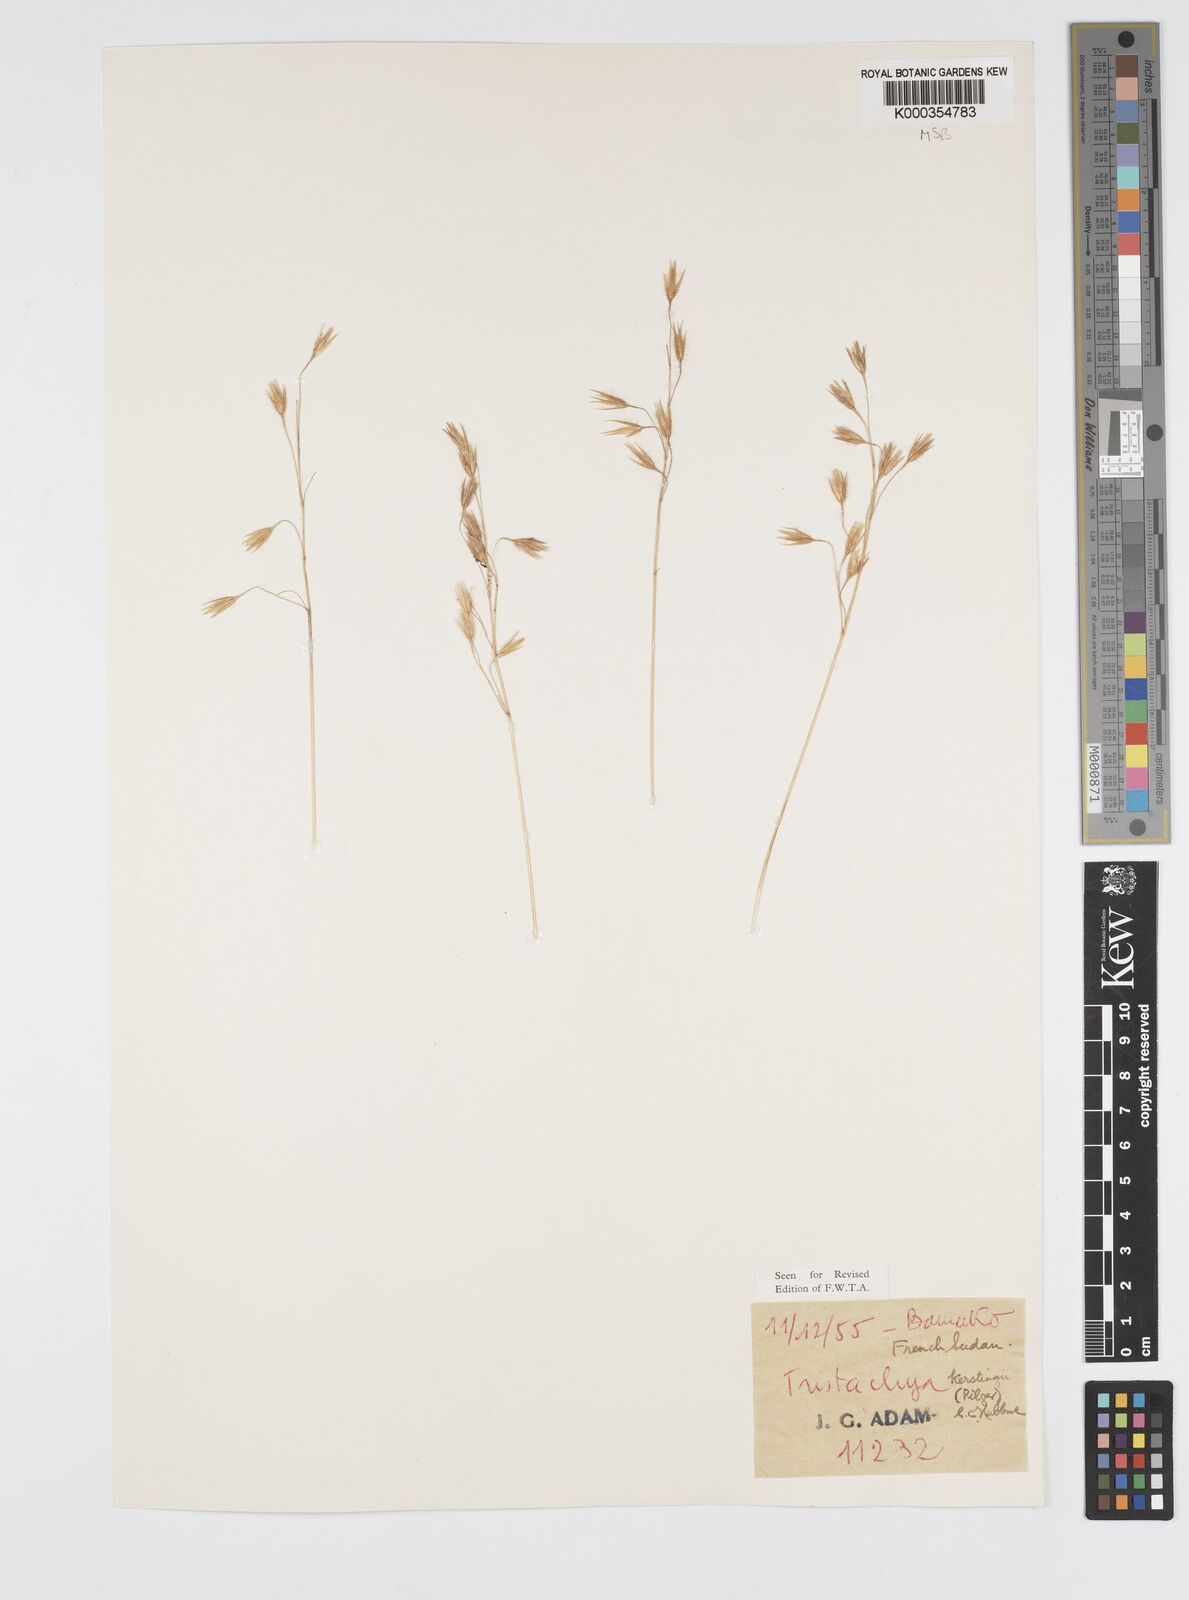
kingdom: Plantae
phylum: Tracheophyta
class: Liliopsida
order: Poales
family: Poaceae
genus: Loudetiopsis
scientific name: Loudetiopsis kerstingii
